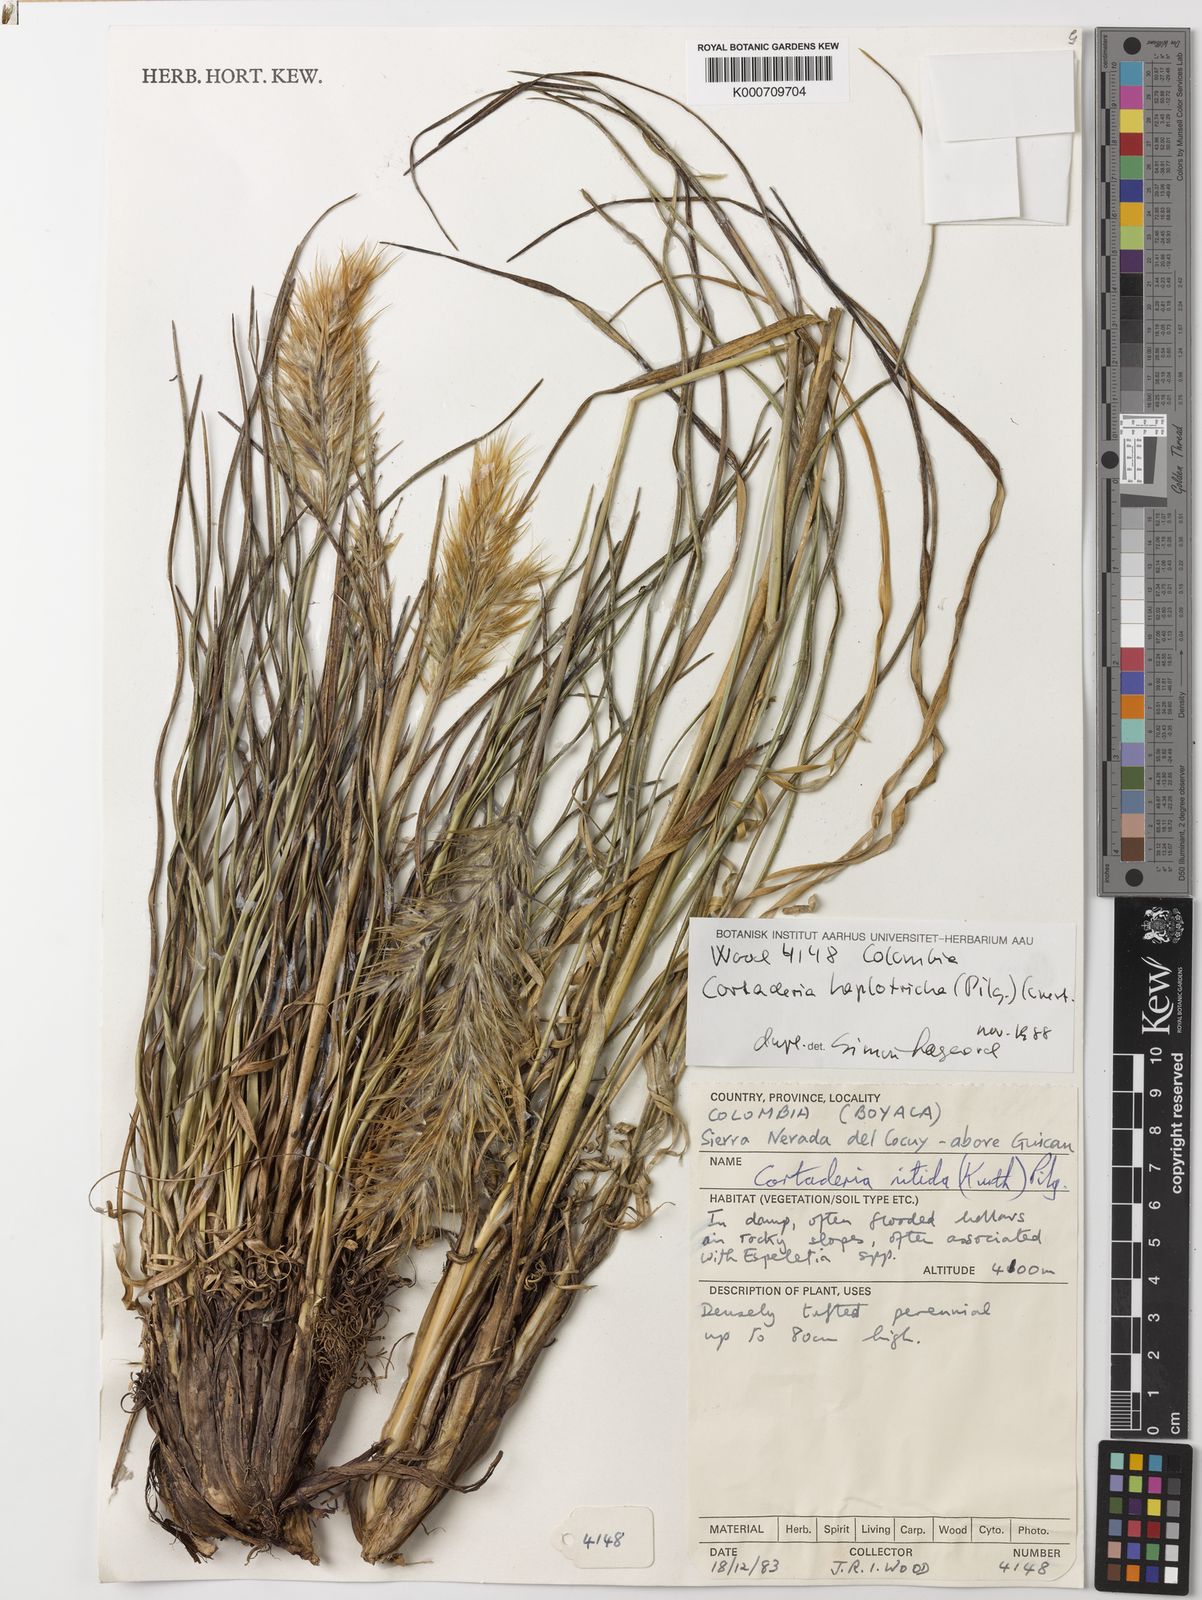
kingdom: Plantae
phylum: Tracheophyta
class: Liliopsida
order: Poales
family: Poaceae
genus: Cortaderia
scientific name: Cortaderia hapalotricha
